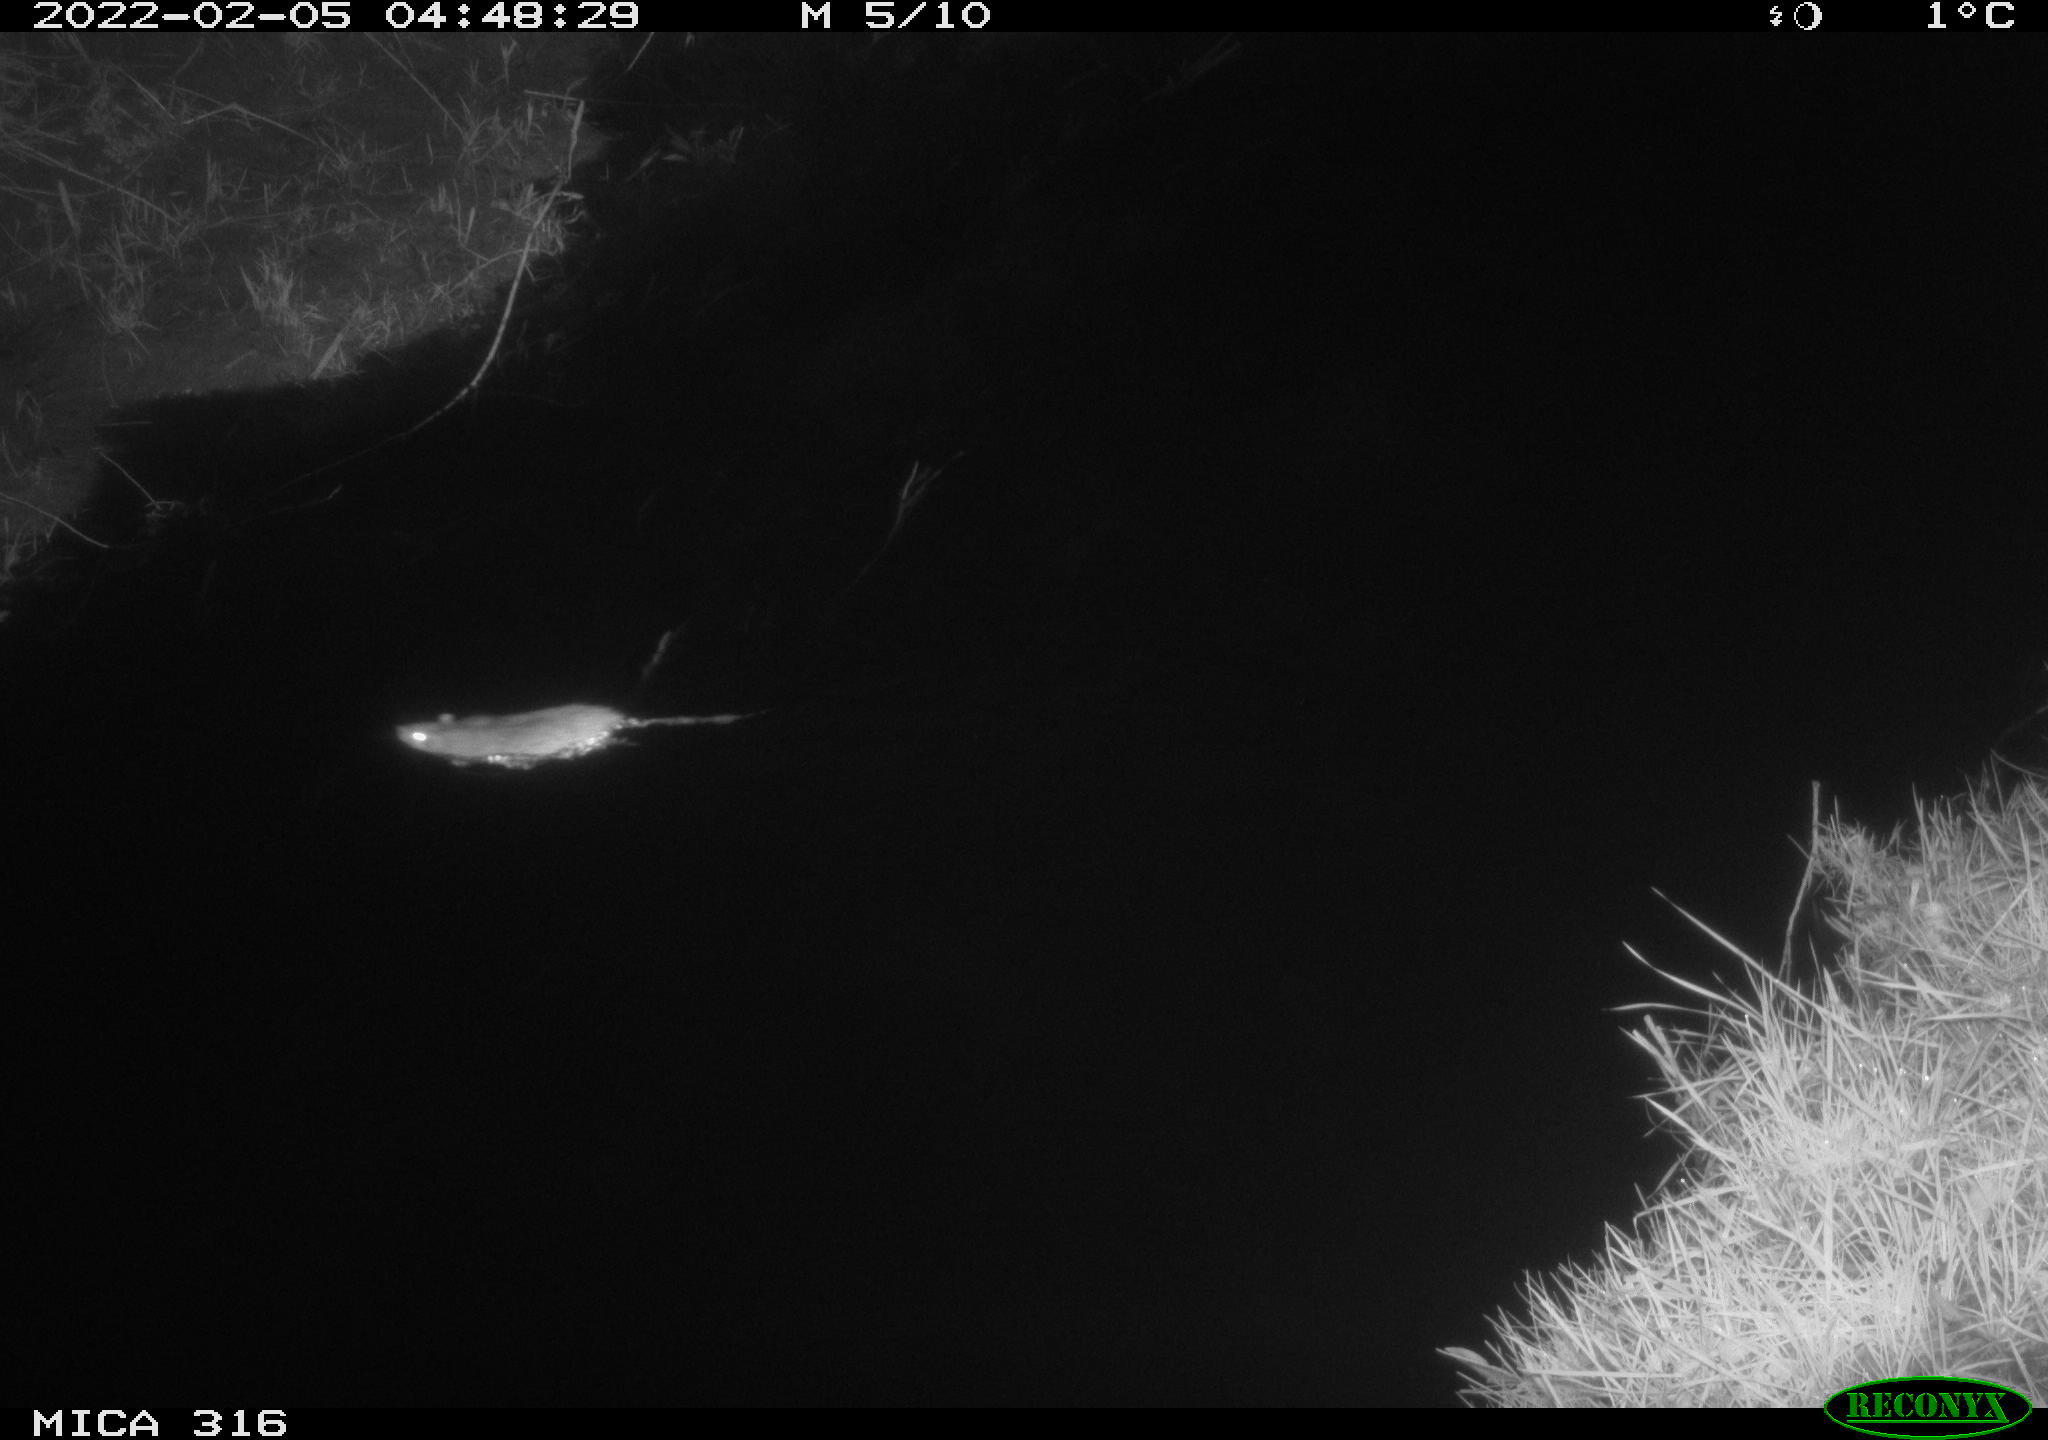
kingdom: Animalia
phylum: Chordata
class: Mammalia
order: Rodentia
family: Muridae
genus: Rattus
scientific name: Rattus norvegicus
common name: Brown rat
